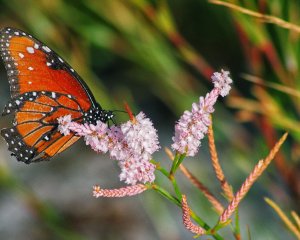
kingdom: Animalia
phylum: Arthropoda
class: Insecta
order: Lepidoptera
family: Nymphalidae
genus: Danaus
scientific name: Danaus gilippus
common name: Queen
